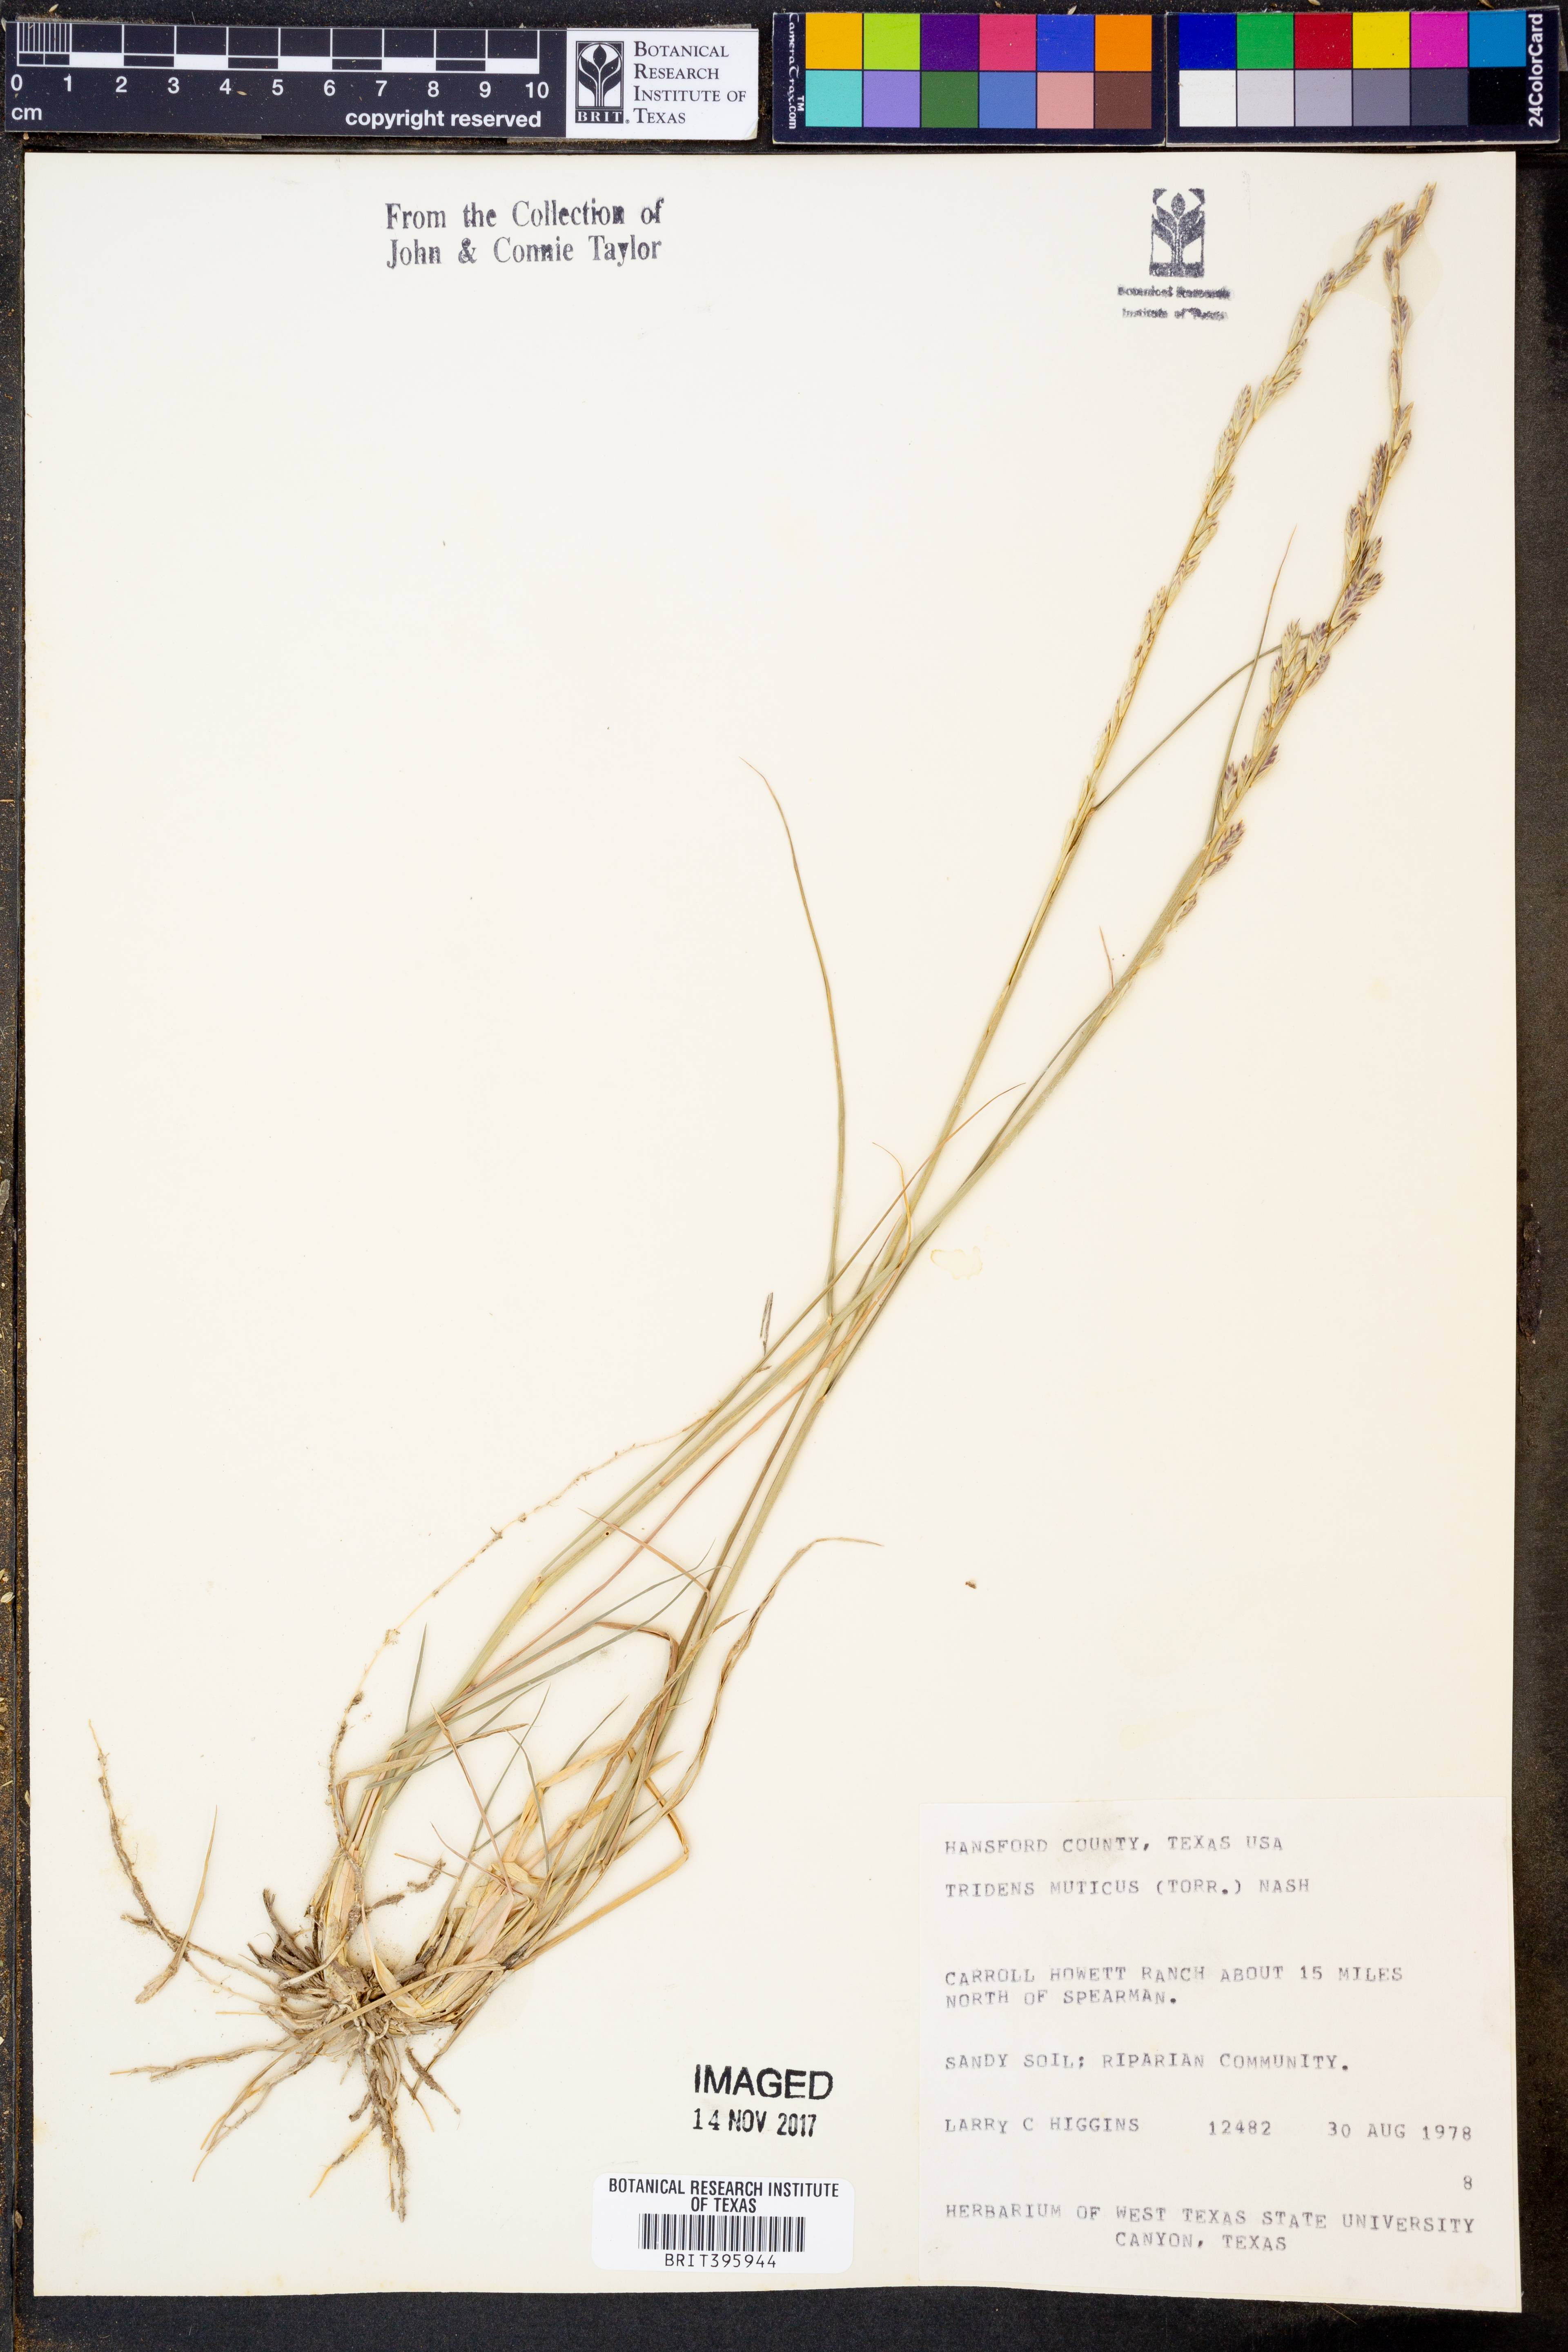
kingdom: Plantae
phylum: Tracheophyta
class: Liliopsida
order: Poales
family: Poaceae
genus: Tridentopsis
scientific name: Tridentopsis mutica
